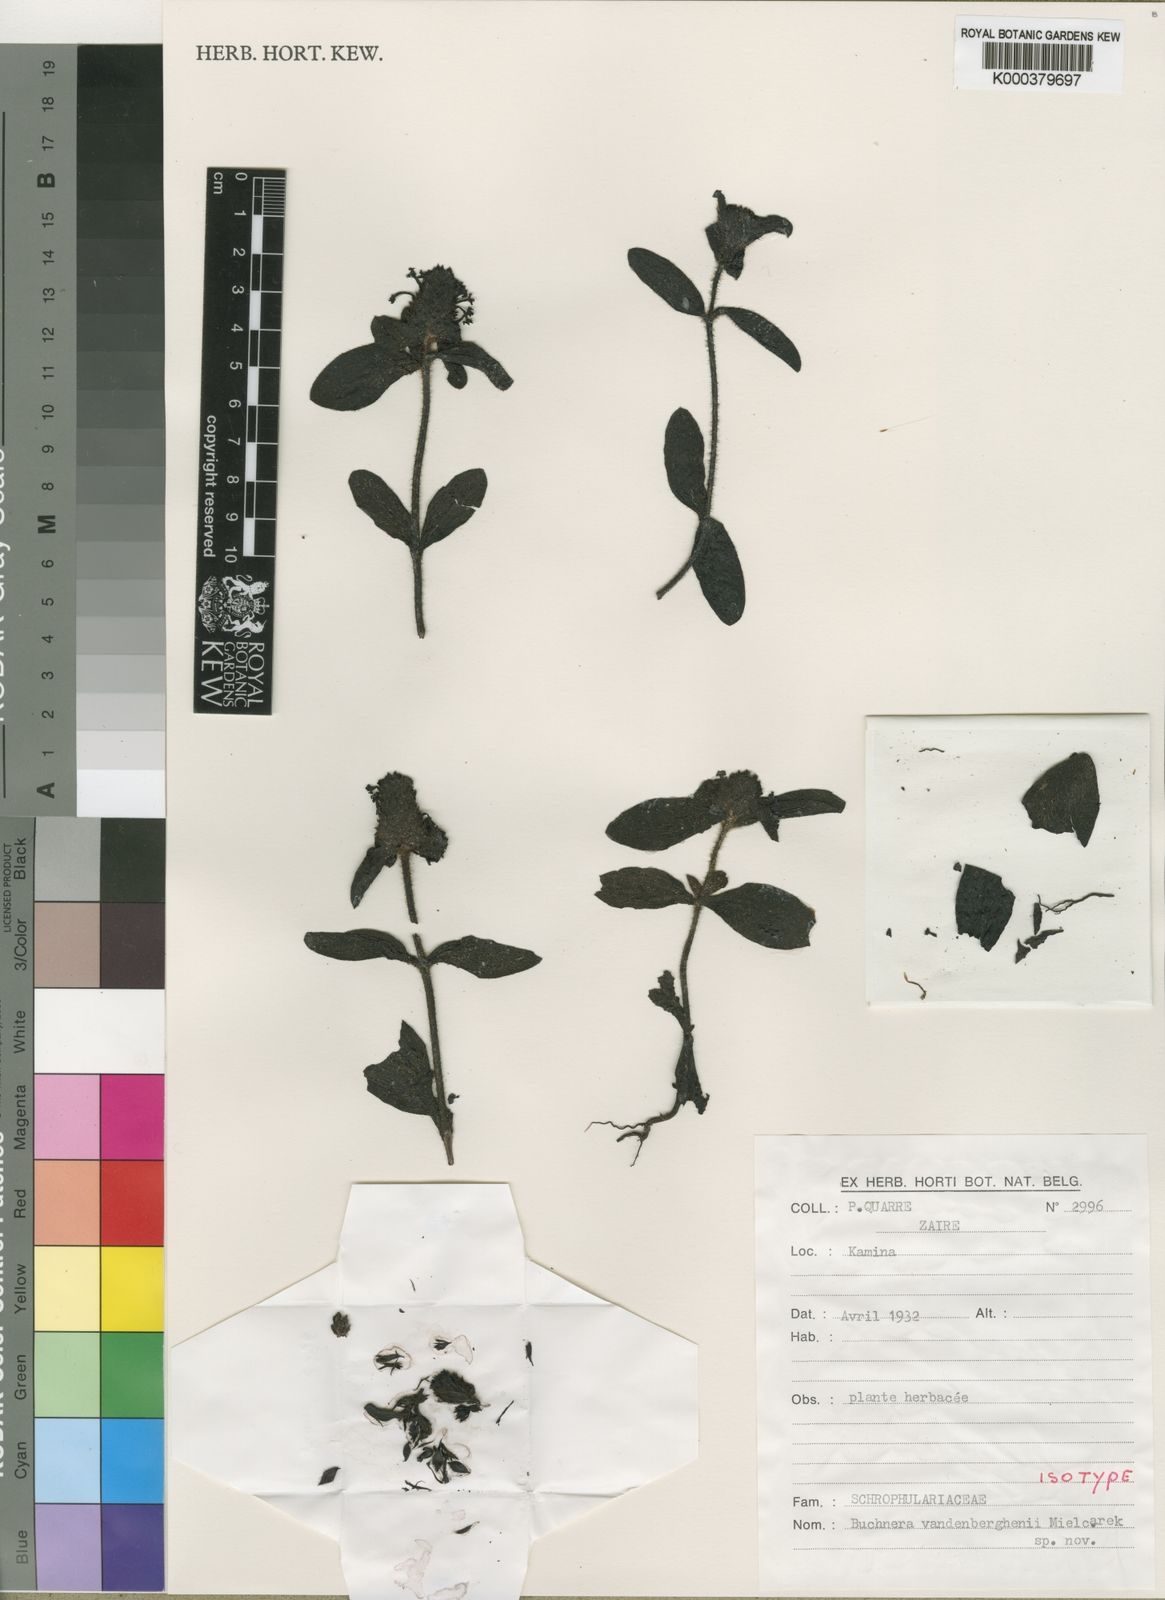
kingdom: Plantae
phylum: Tracheophyta
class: Magnoliopsida
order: Lamiales
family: Orobanchaceae
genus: Buchnera
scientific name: Buchnera vandenberghenii
